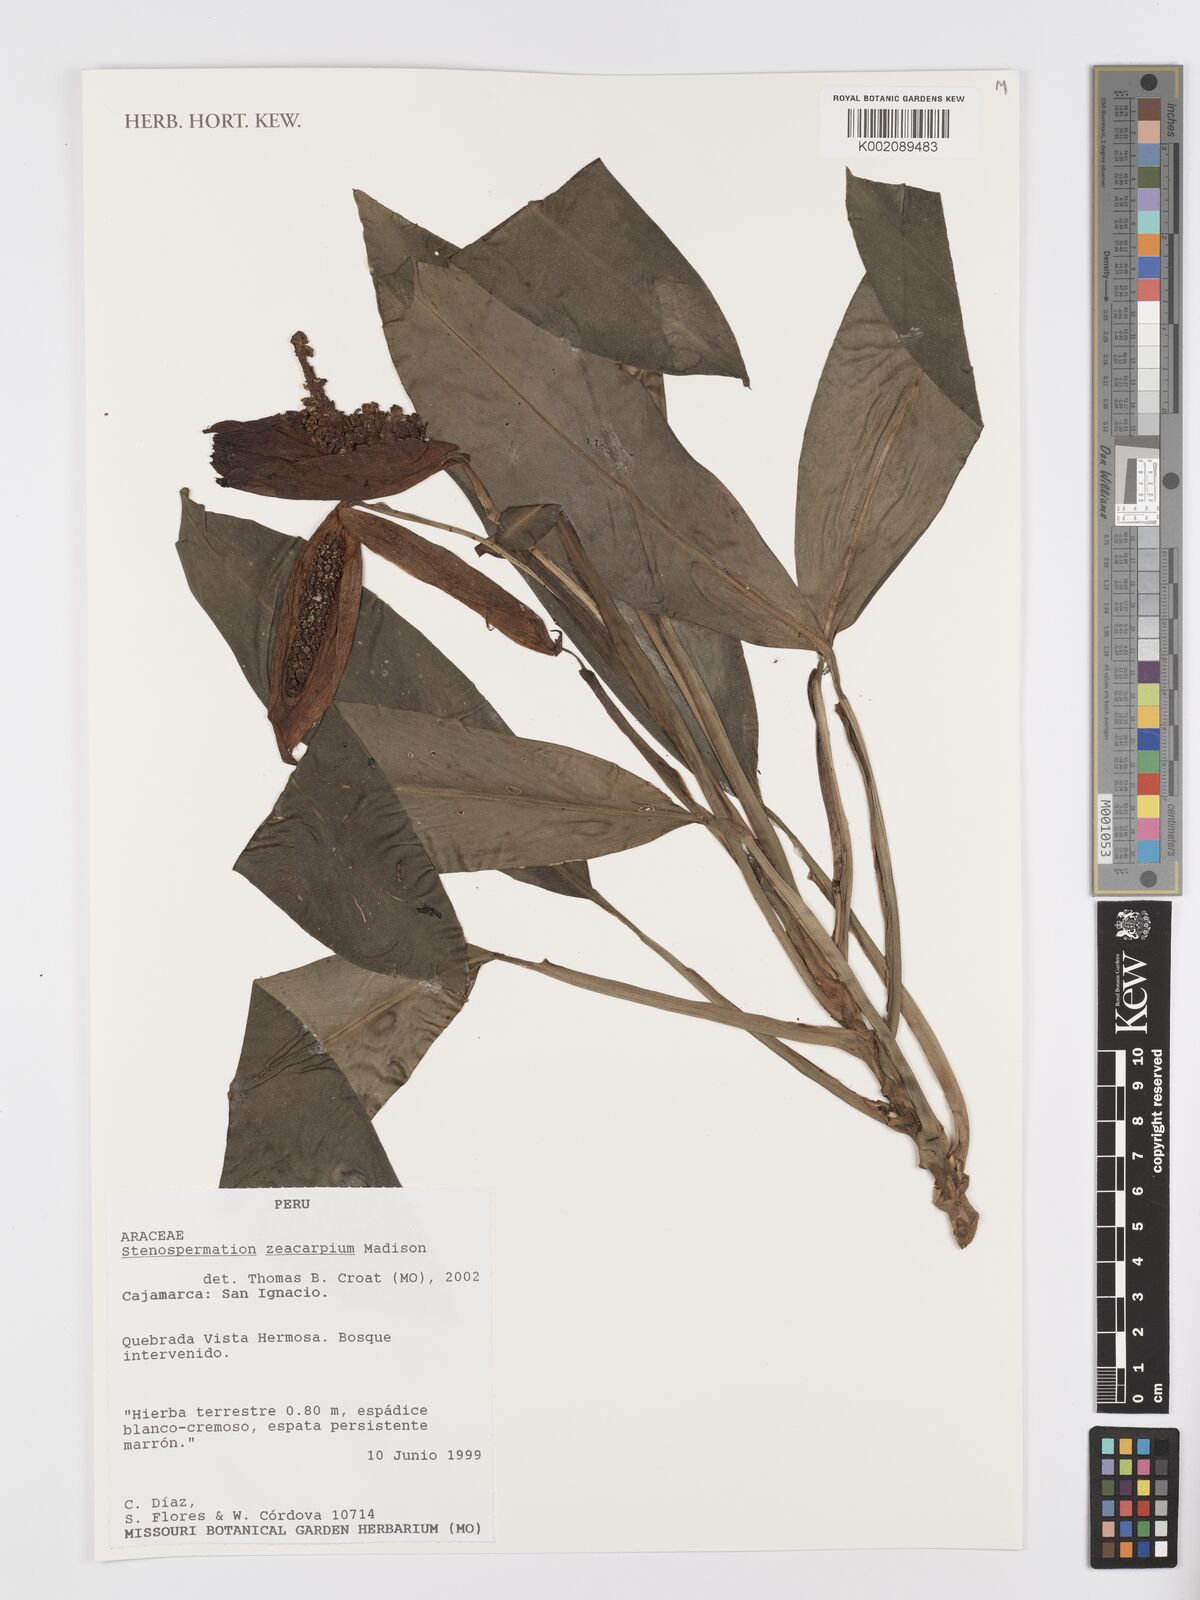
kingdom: Plantae
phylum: Tracheophyta
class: Liliopsida
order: Alismatales
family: Araceae
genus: Stenospermation
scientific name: Stenospermation zeacarpium
